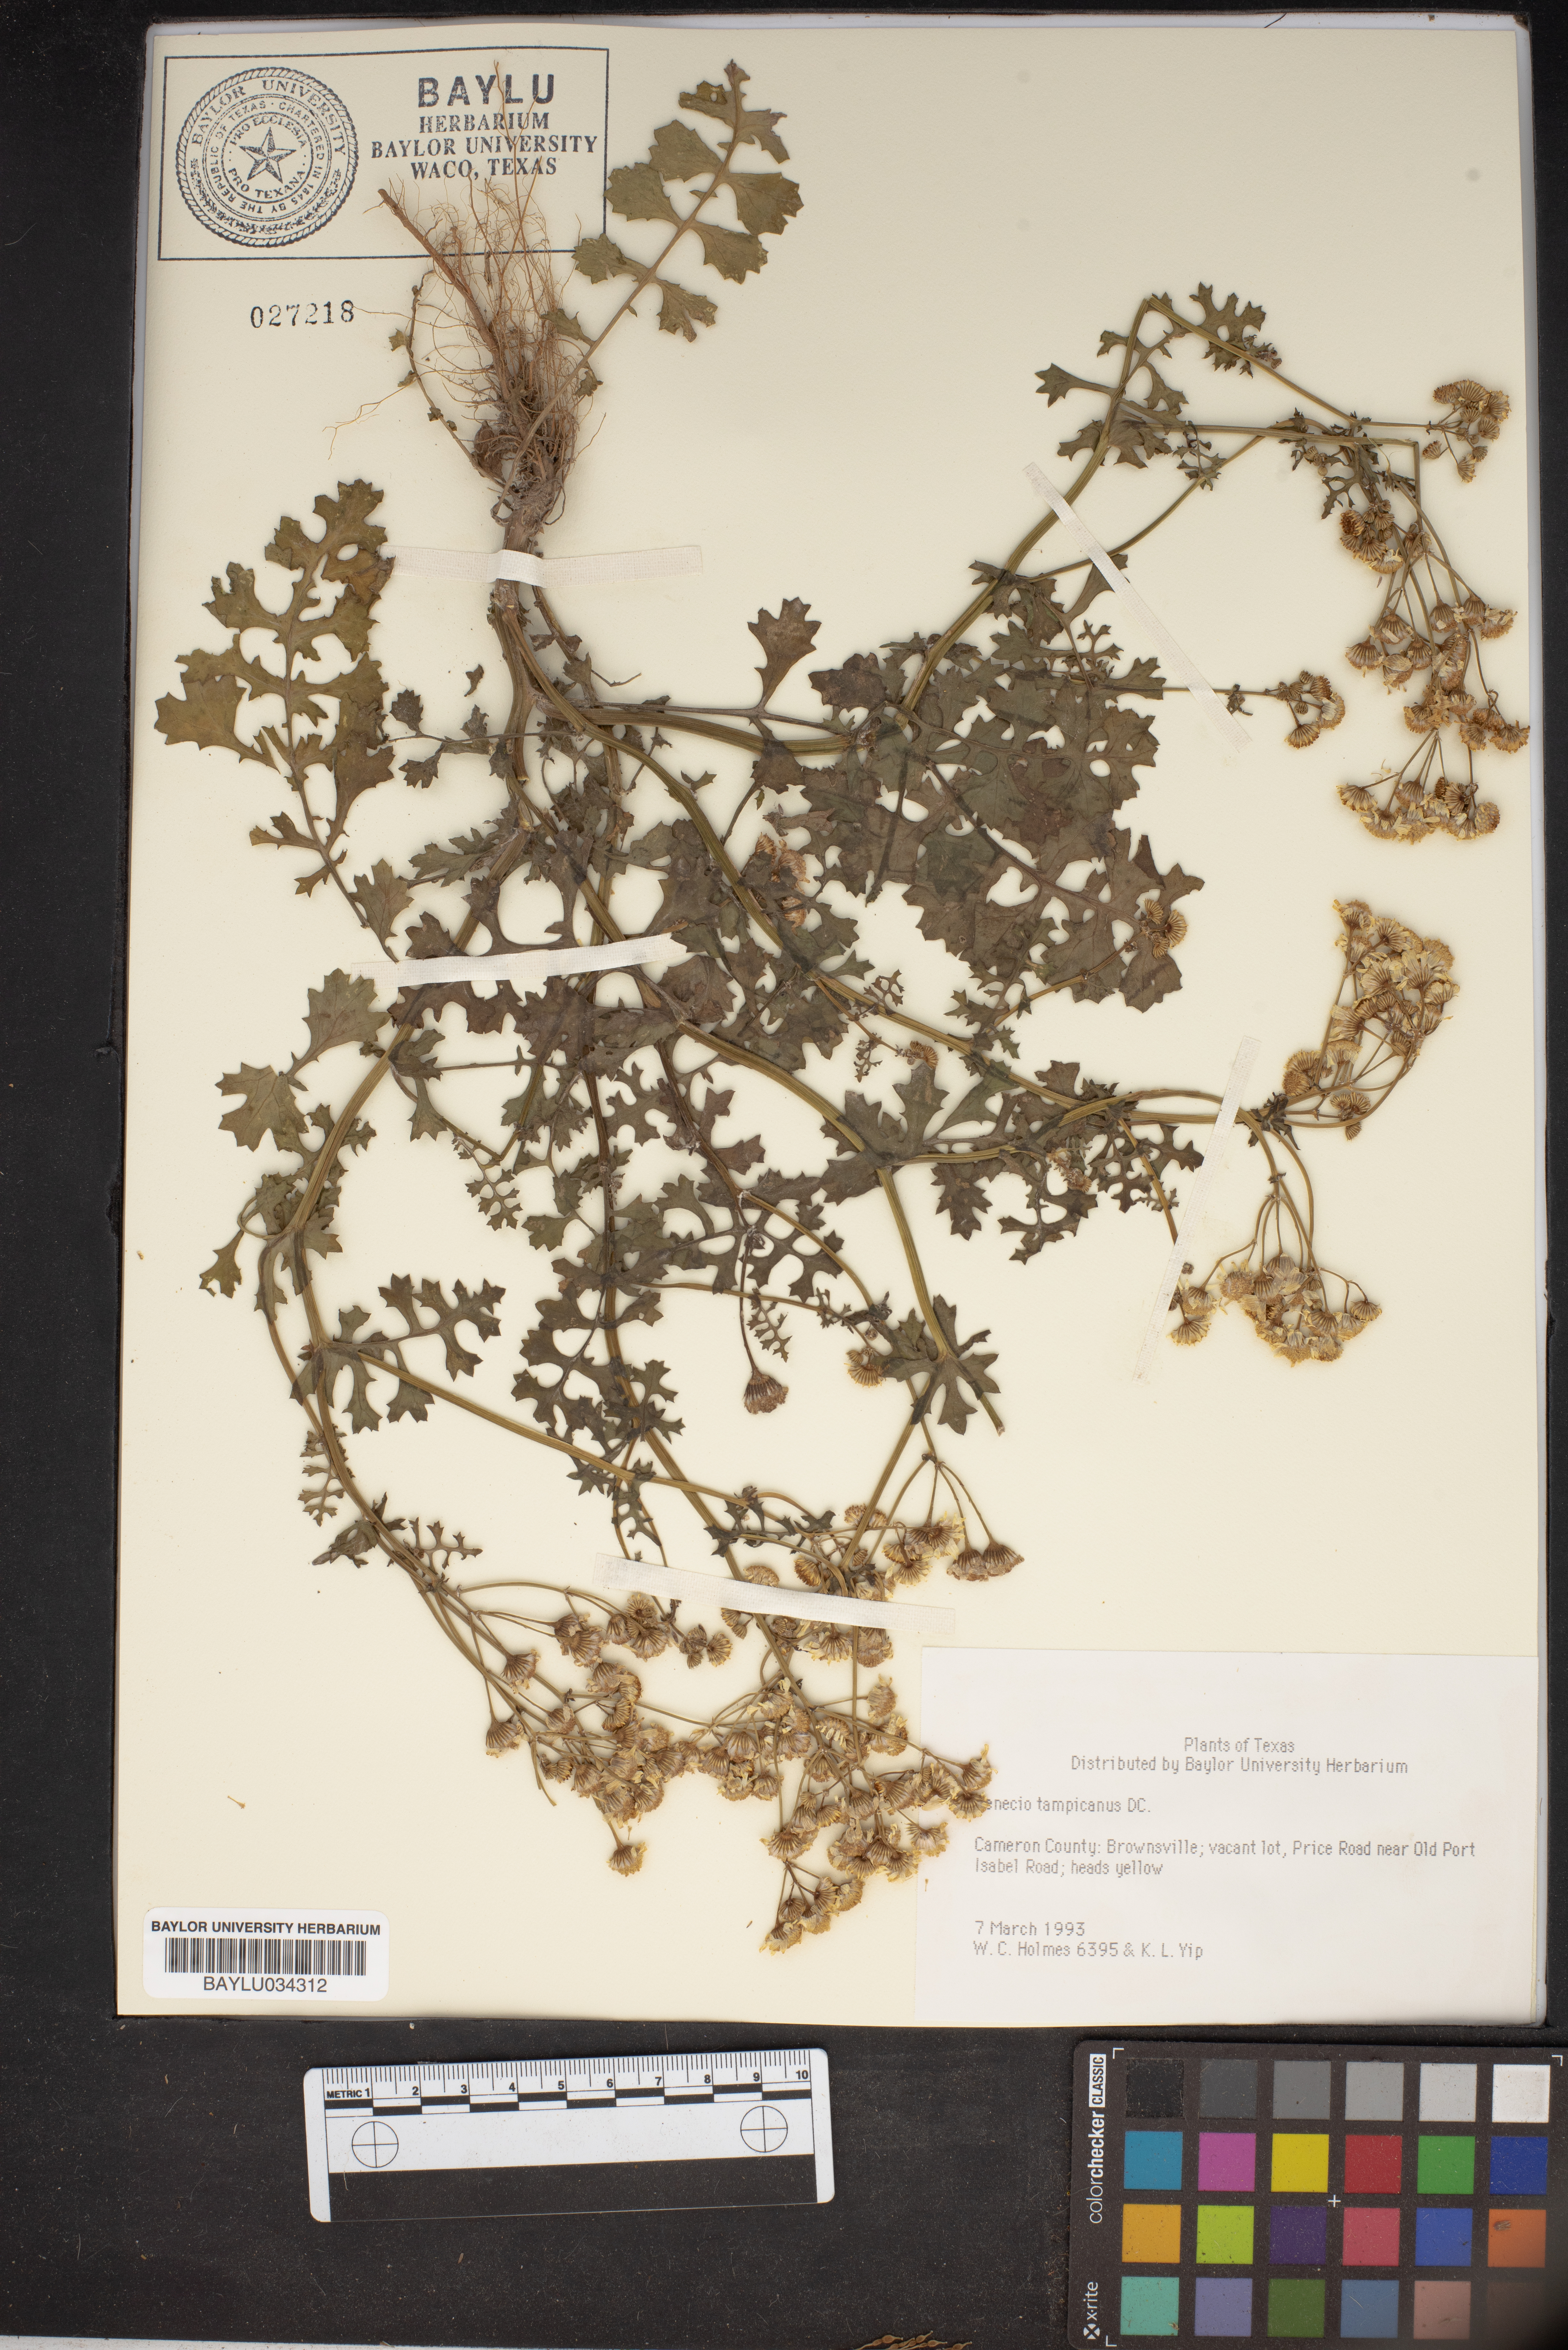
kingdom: Plantae
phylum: Tracheophyta
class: Magnoliopsida
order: Asterales
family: Asteraceae
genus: Packera
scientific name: Packera tampicana
